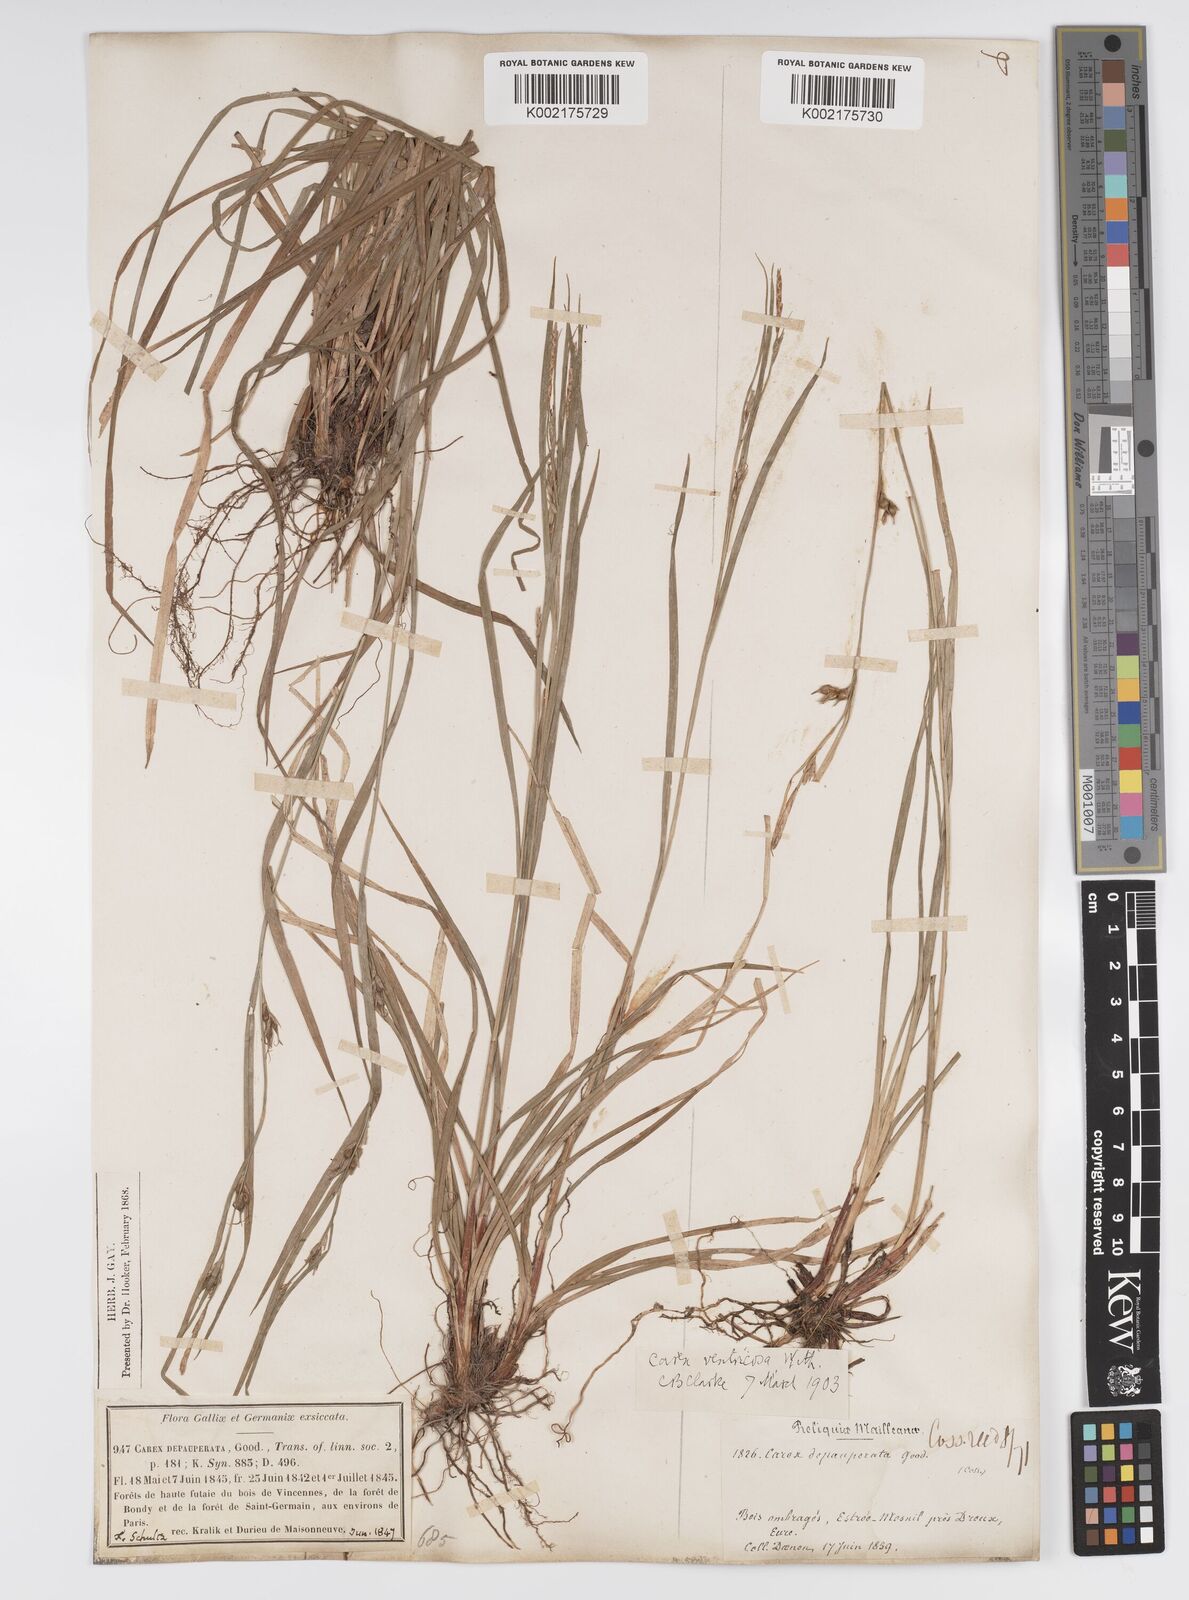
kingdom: Plantae
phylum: Tracheophyta
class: Liliopsida
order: Poales
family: Cyperaceae
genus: Carex
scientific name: Carex
